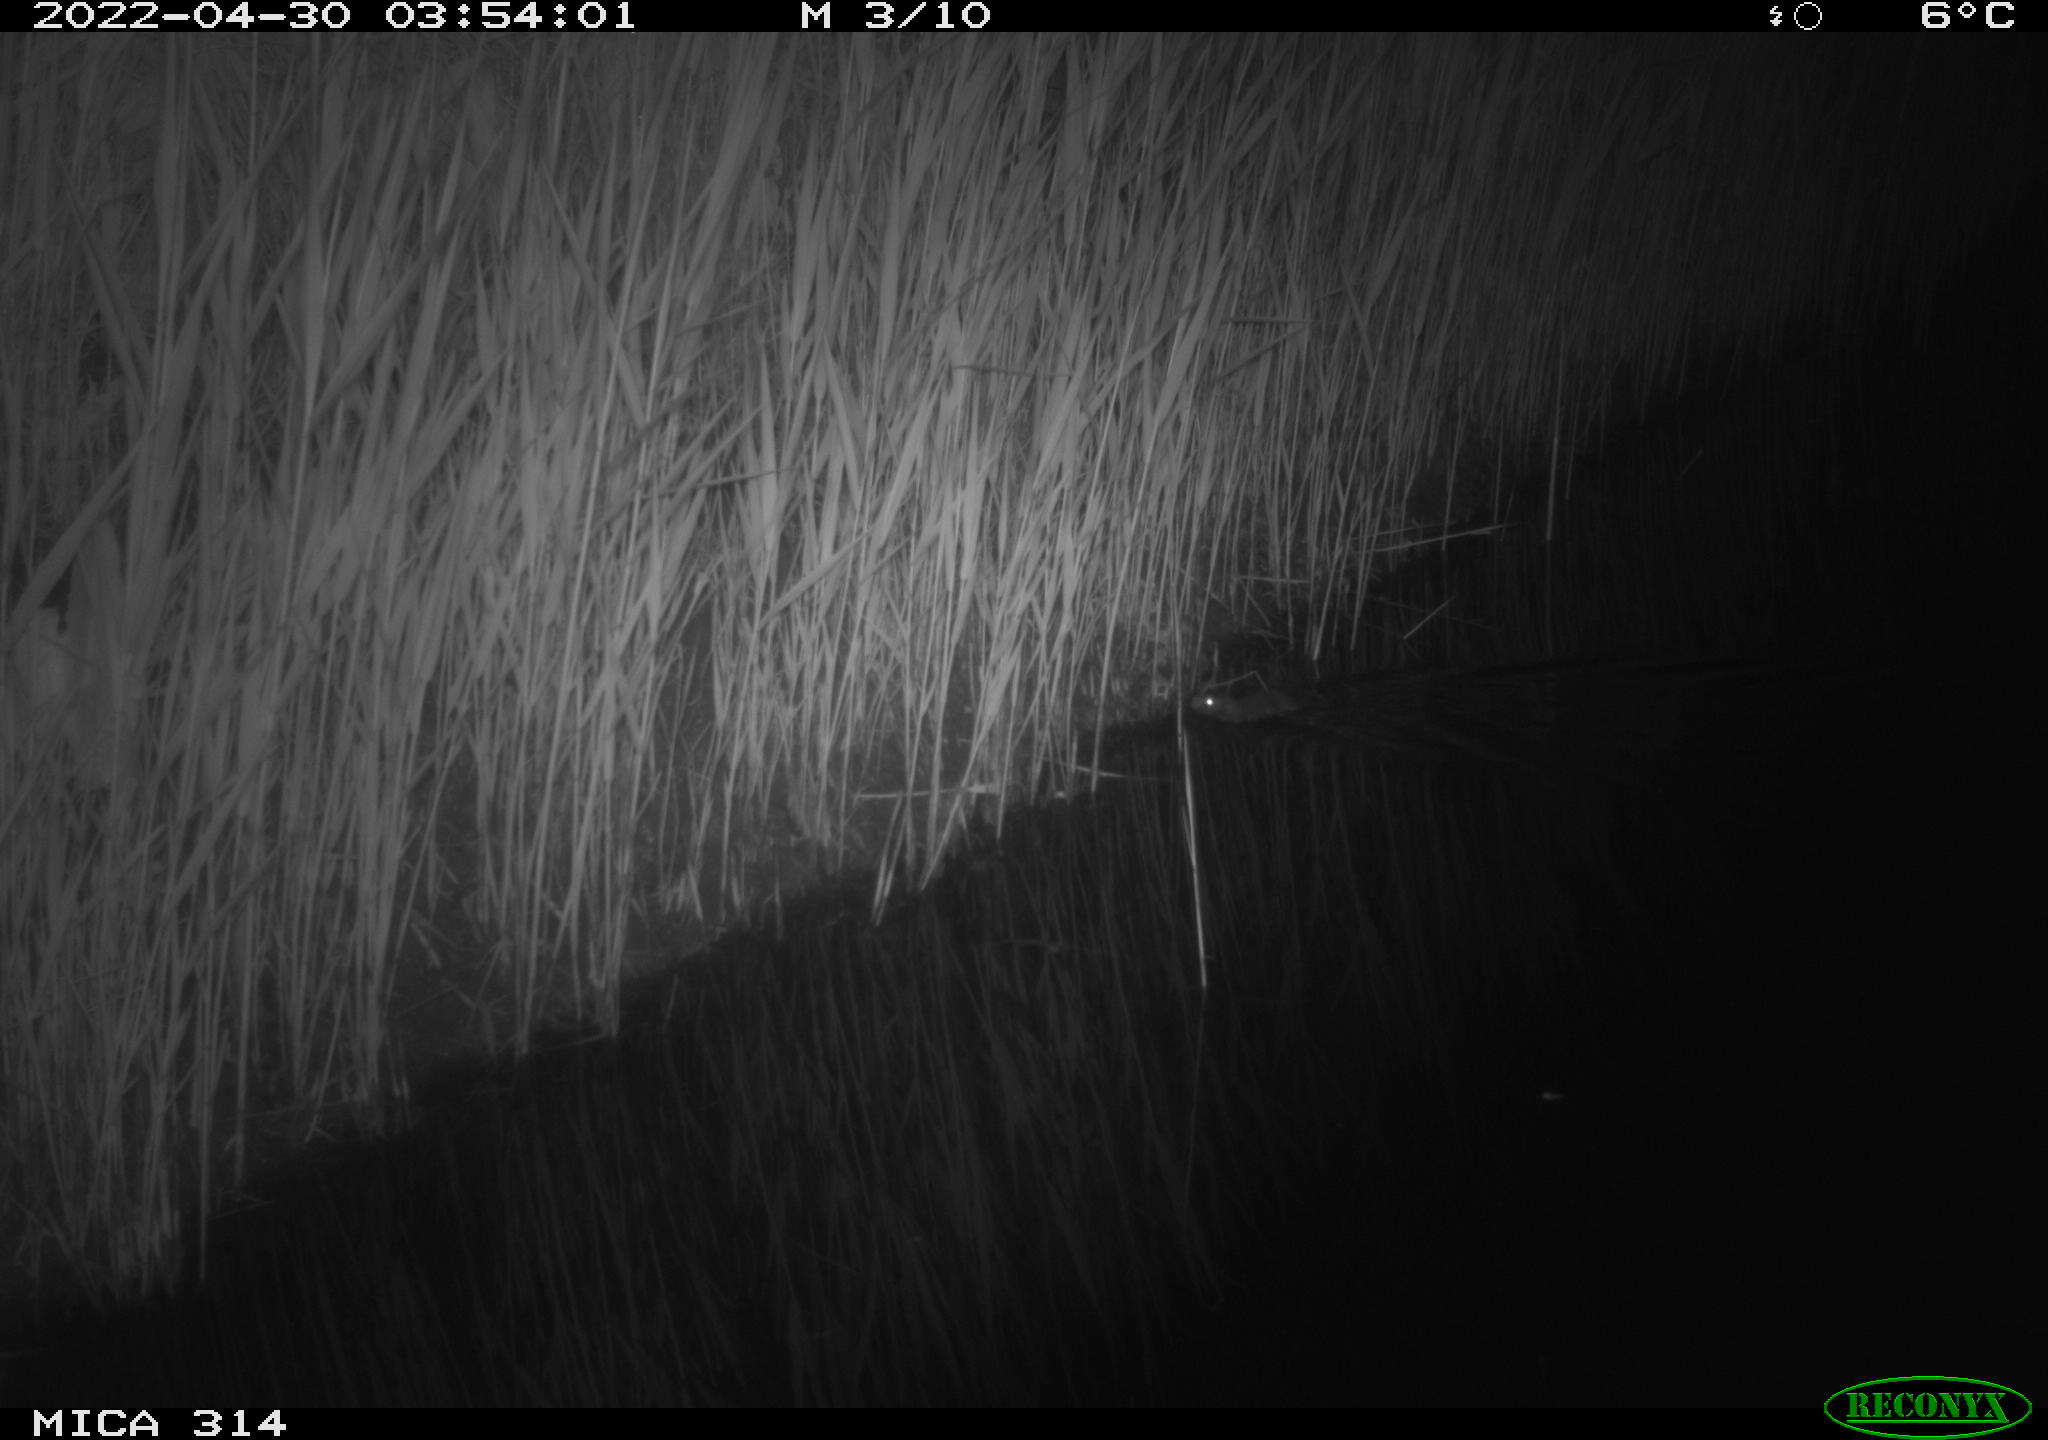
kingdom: Animalia
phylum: Chordata
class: Mammalia
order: Rodentia
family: Muridae
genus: Rattus
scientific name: Rattus norvegicus
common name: Brown rat
